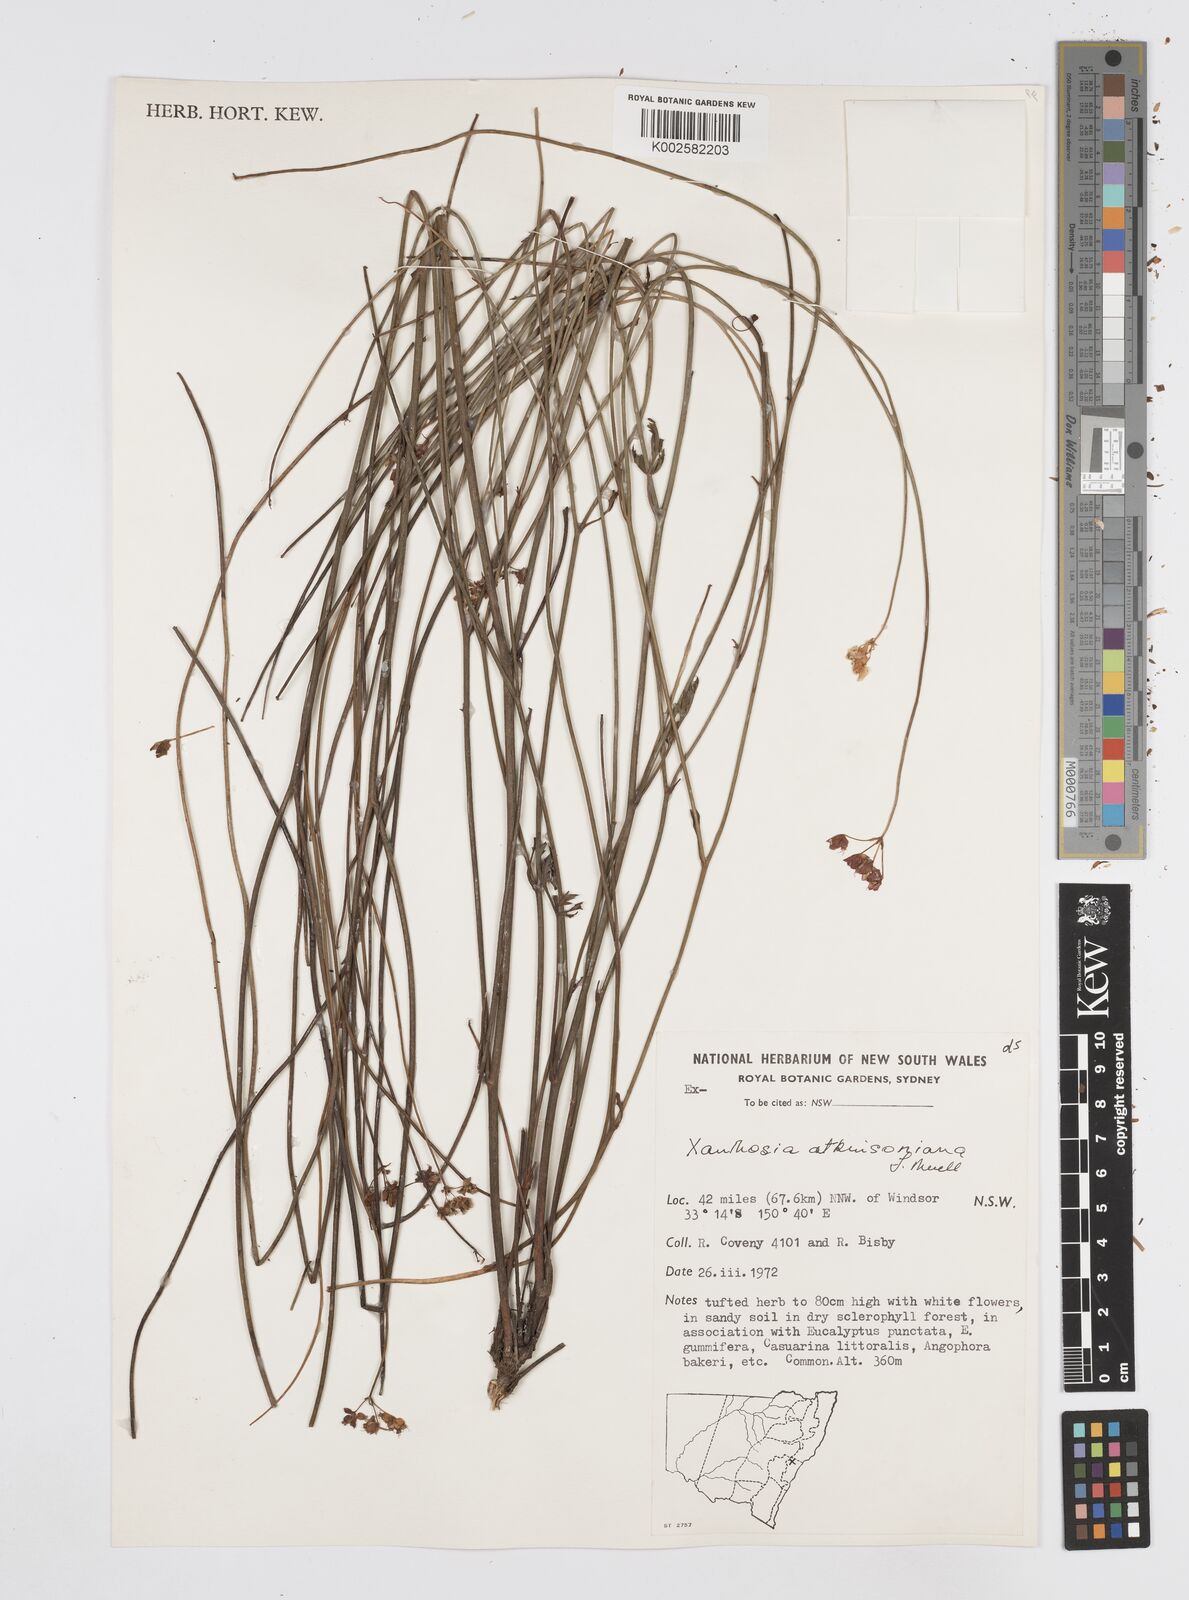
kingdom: Plantae
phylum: Tracheophyta
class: Magnoliopsida
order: Apiales
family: Apiaceae
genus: Xanthosia
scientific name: Xanthosia atkinsoniana
